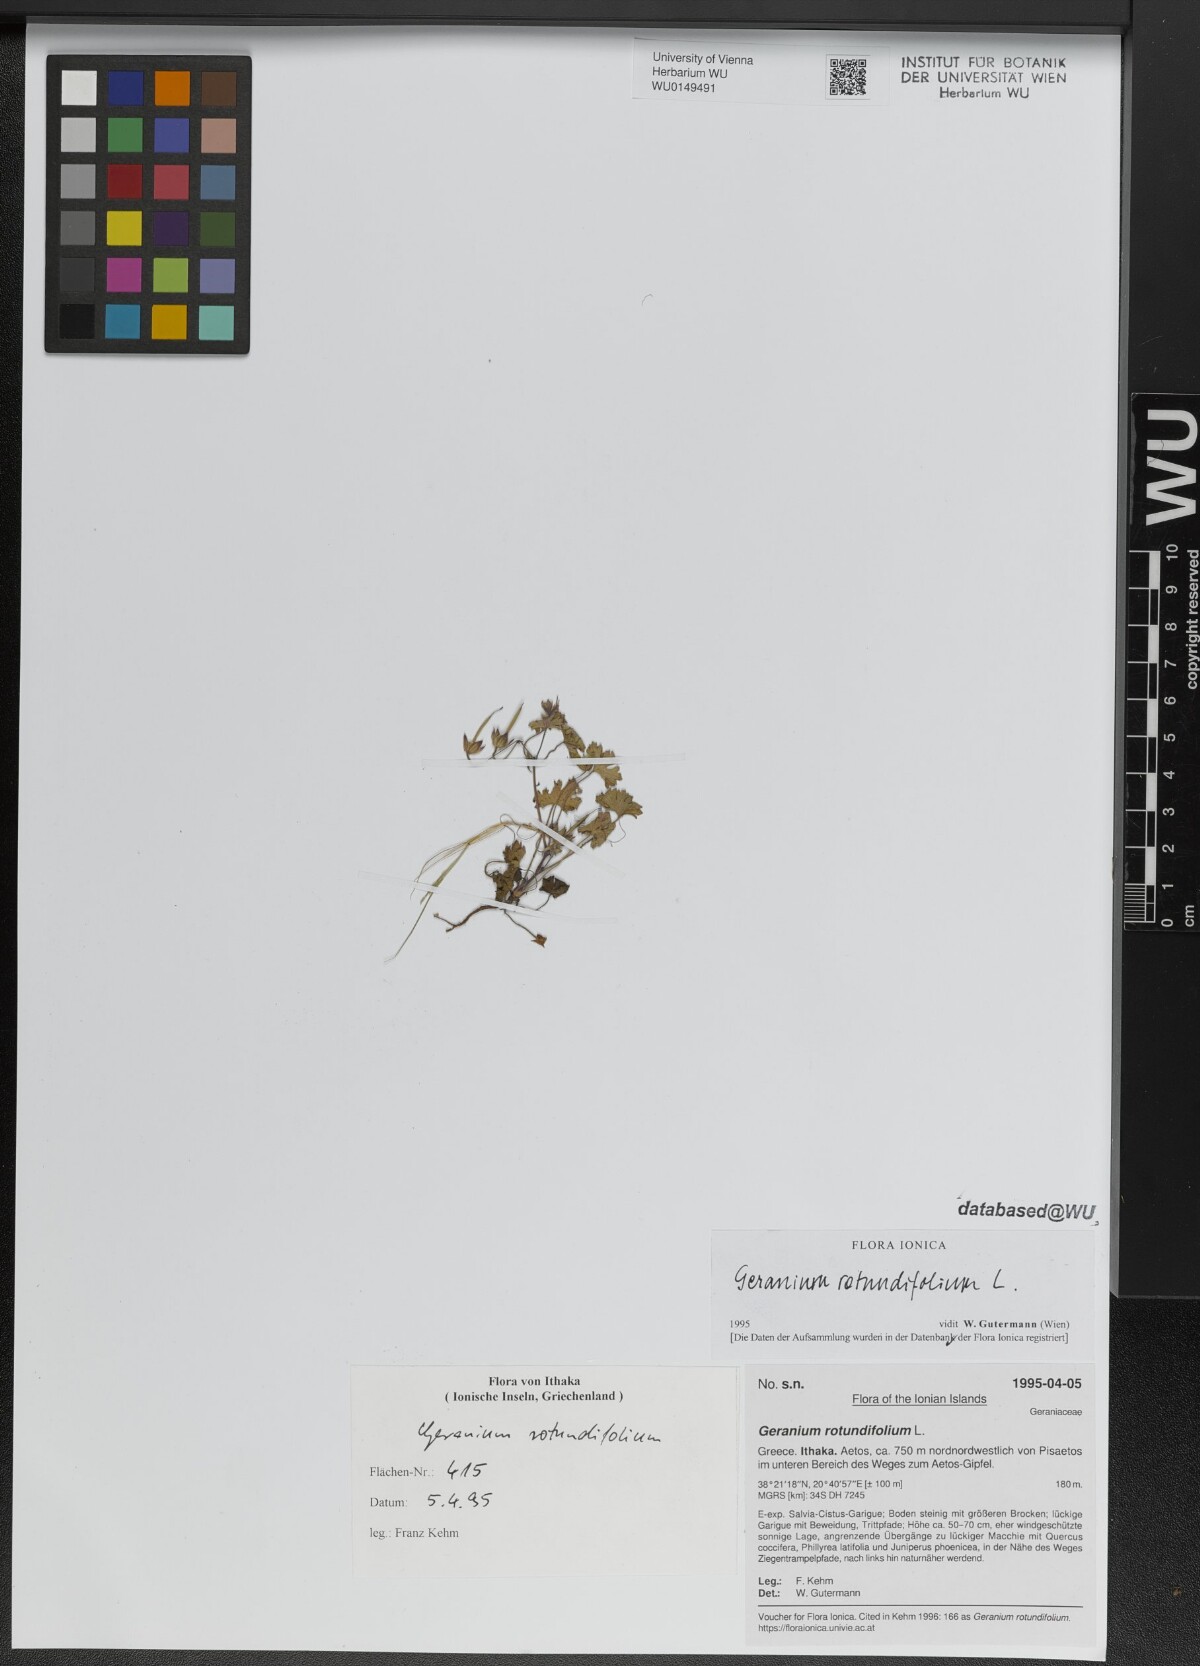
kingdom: Plantae
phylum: Tracheophyta
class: Magnoliopsida
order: Geraniales
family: Geraniaceae
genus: Geranium
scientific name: Geranium rotundifolium
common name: Round-leaved crane's-bill
